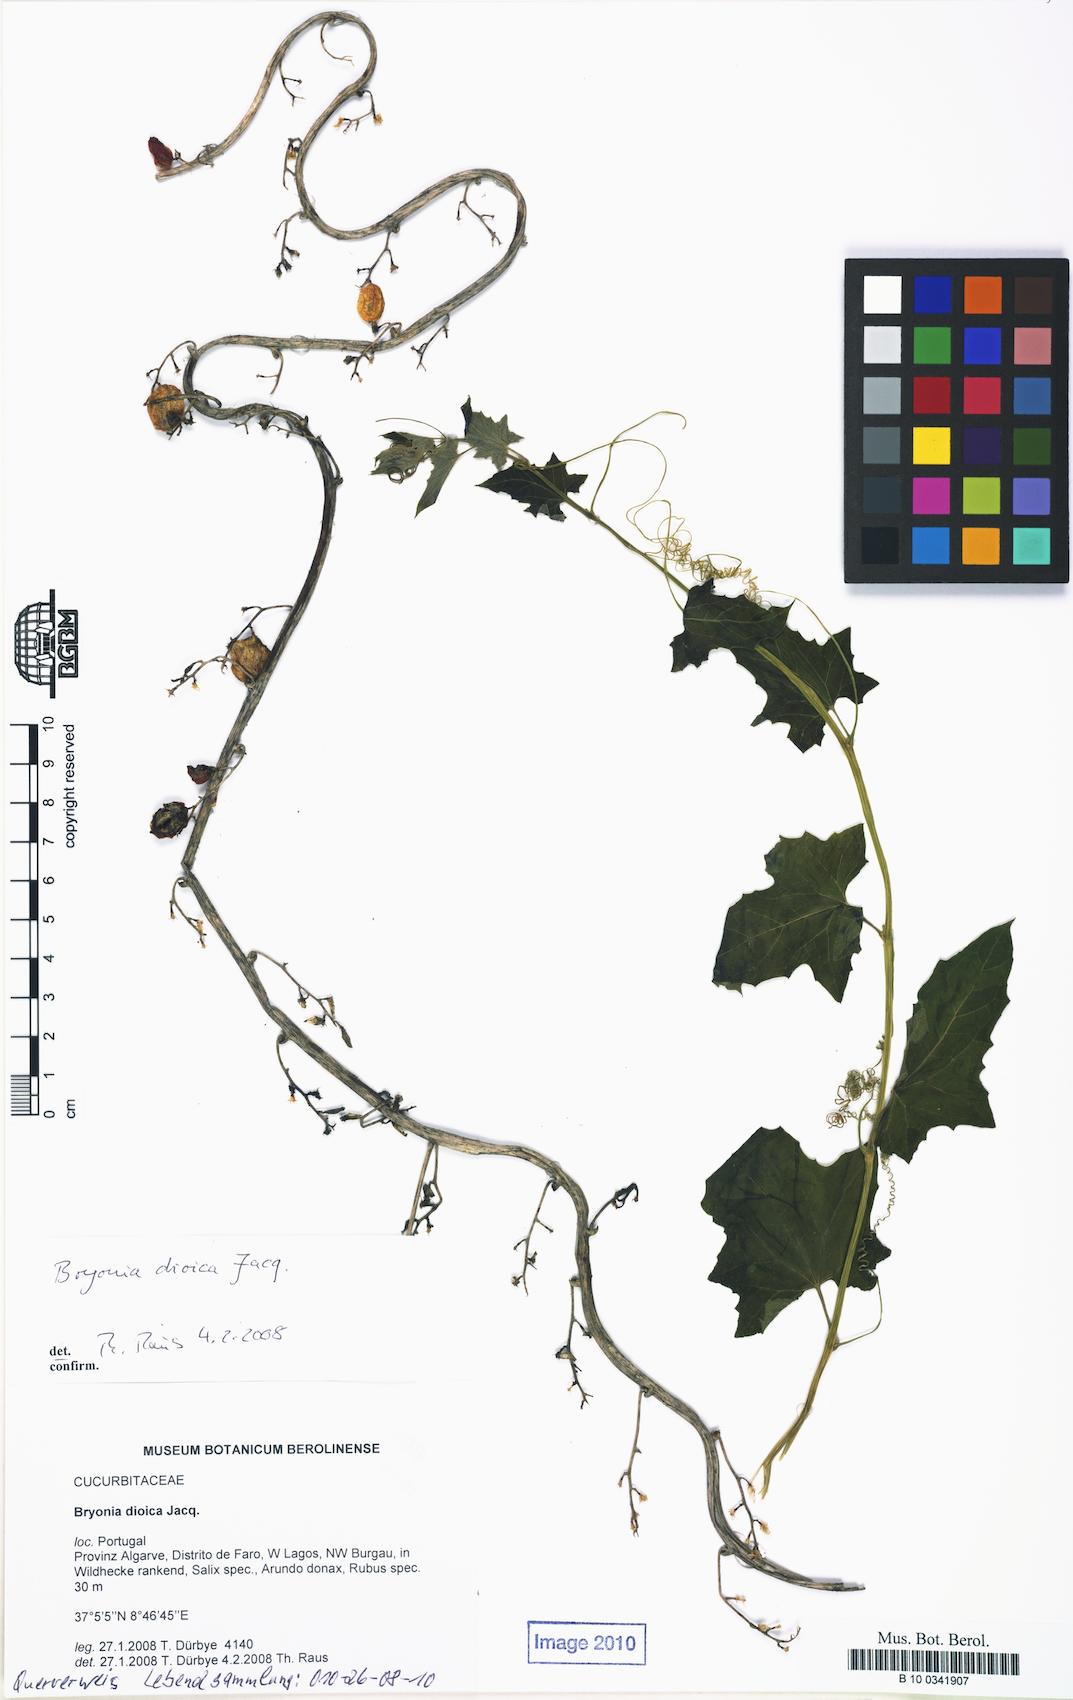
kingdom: Plantae
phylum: Tracheophyta
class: Magnoliopsida
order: Cucurbitales
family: Cucurbitaceae
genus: Bryonia
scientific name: Bryonia dioica
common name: White bryony
